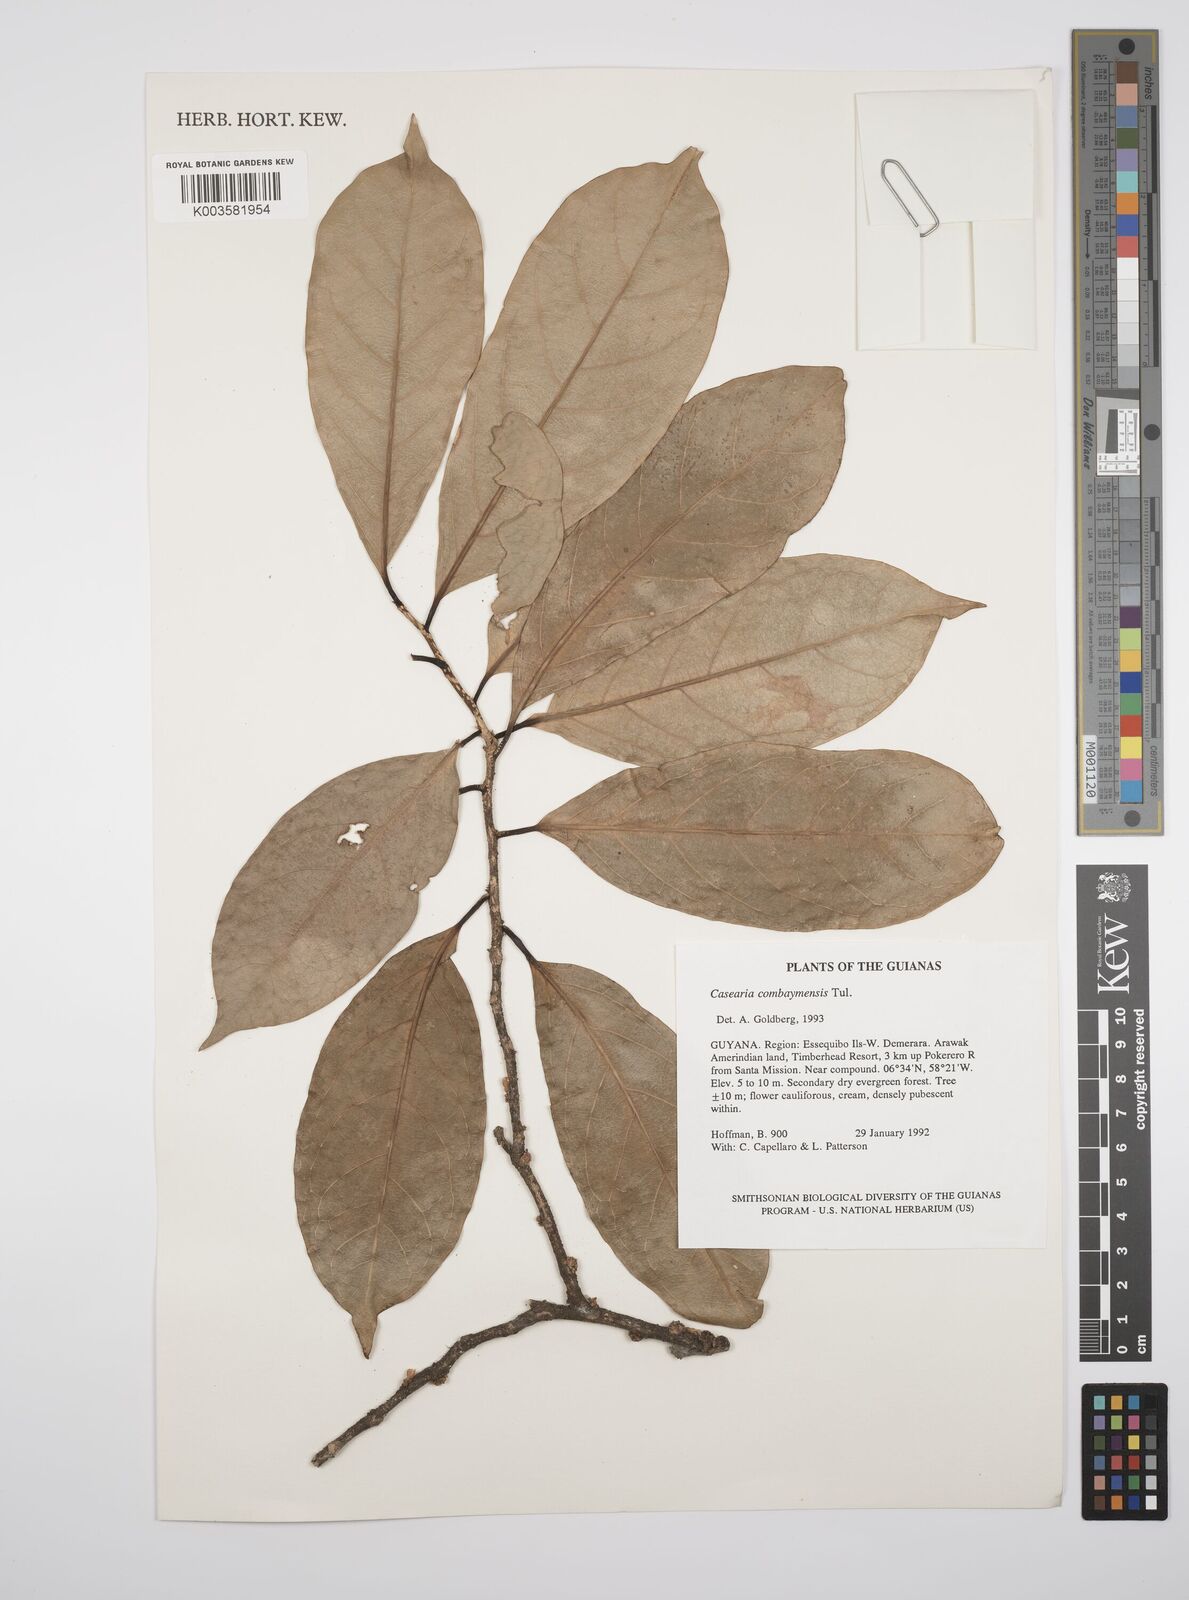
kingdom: Plantae
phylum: Tracheophyta
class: Magnoliopsida
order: Malpighiales
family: Salicaceae
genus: Casearia
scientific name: Casearia combaymensis
